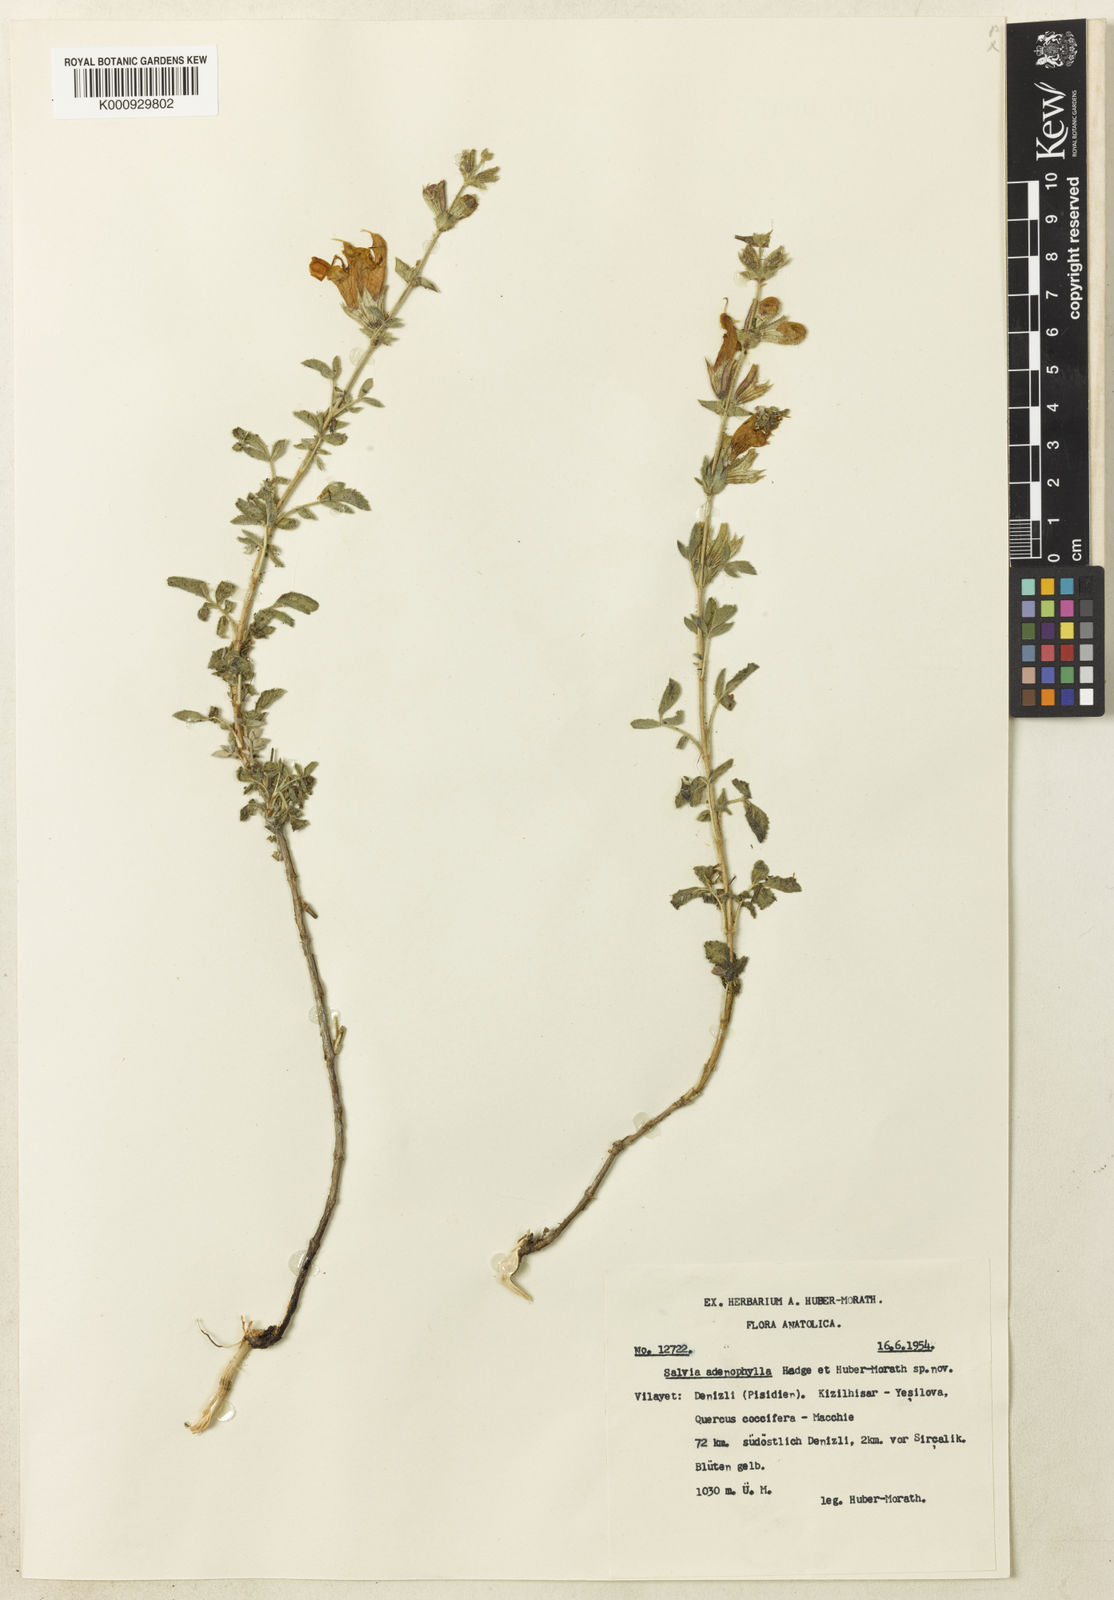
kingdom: Plantae
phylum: Tracheophyta
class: Magnoliopsida
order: Lamiales
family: Lamiaceae
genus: Salvia
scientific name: Salvia albimaculata
